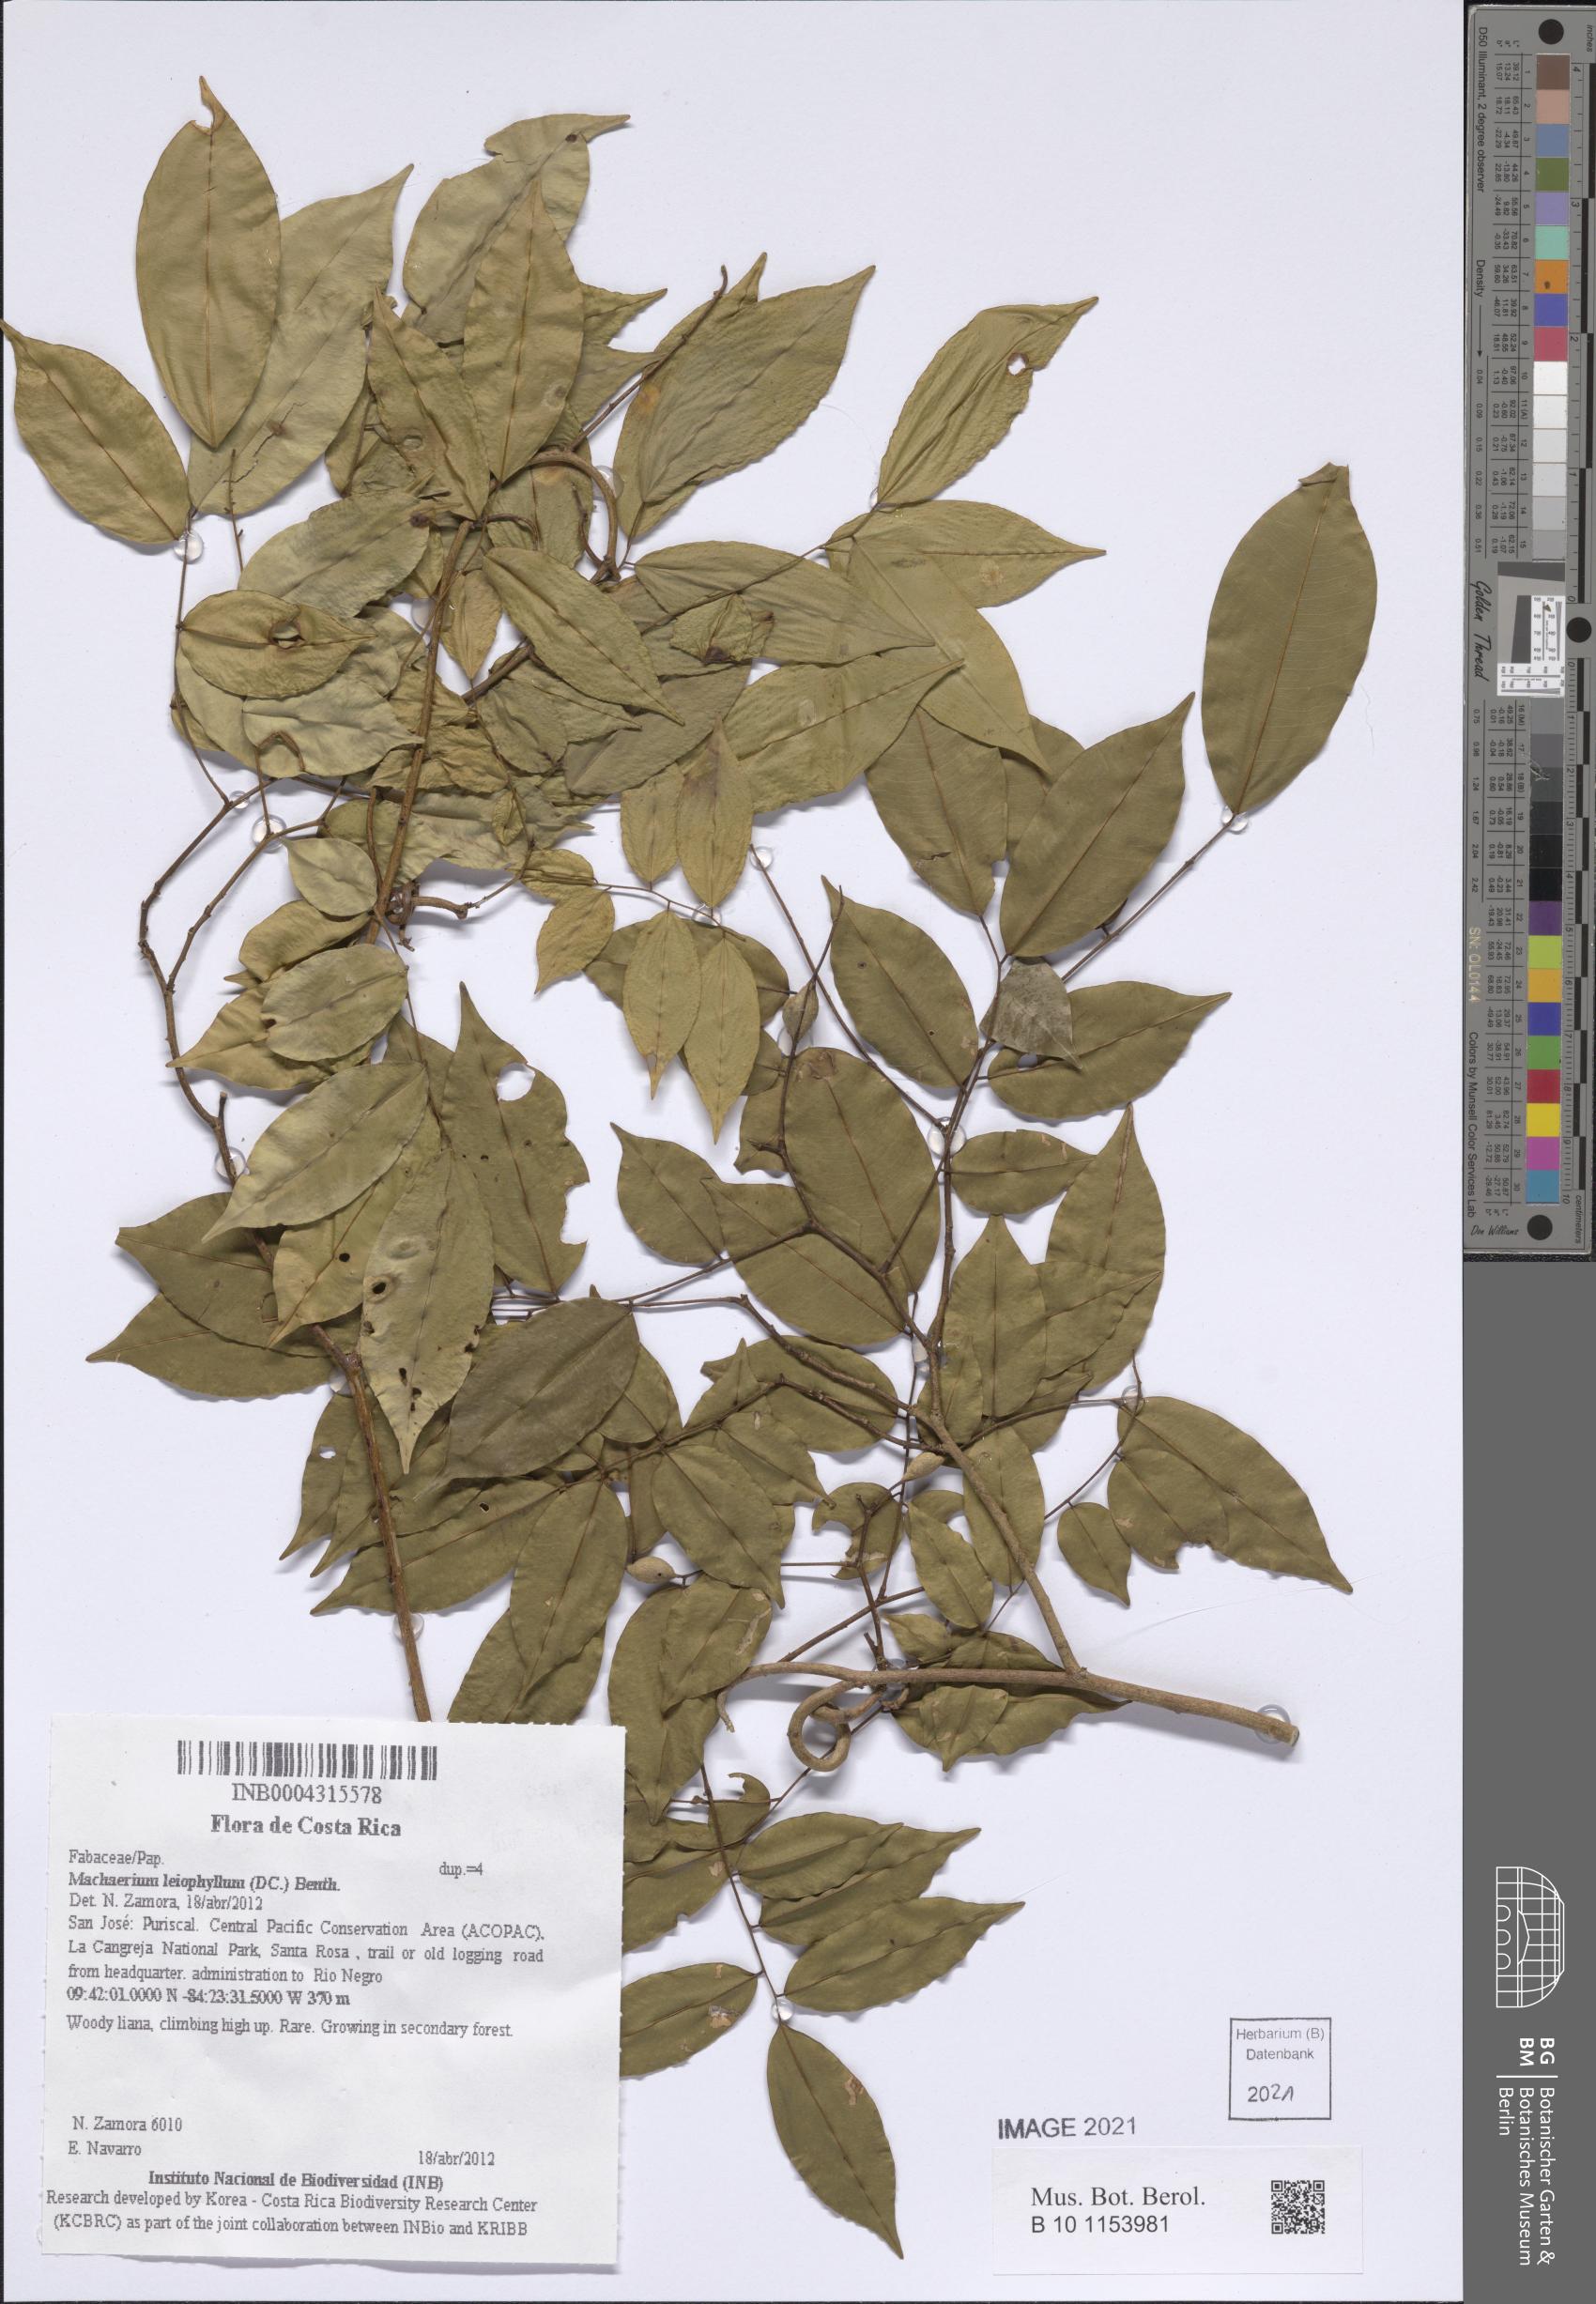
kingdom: Plantae
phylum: Tracheophyta
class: Magnoliopsida
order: Fabales
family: Fabaceae
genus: Machaerium
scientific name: Machaerium leiophyllum
